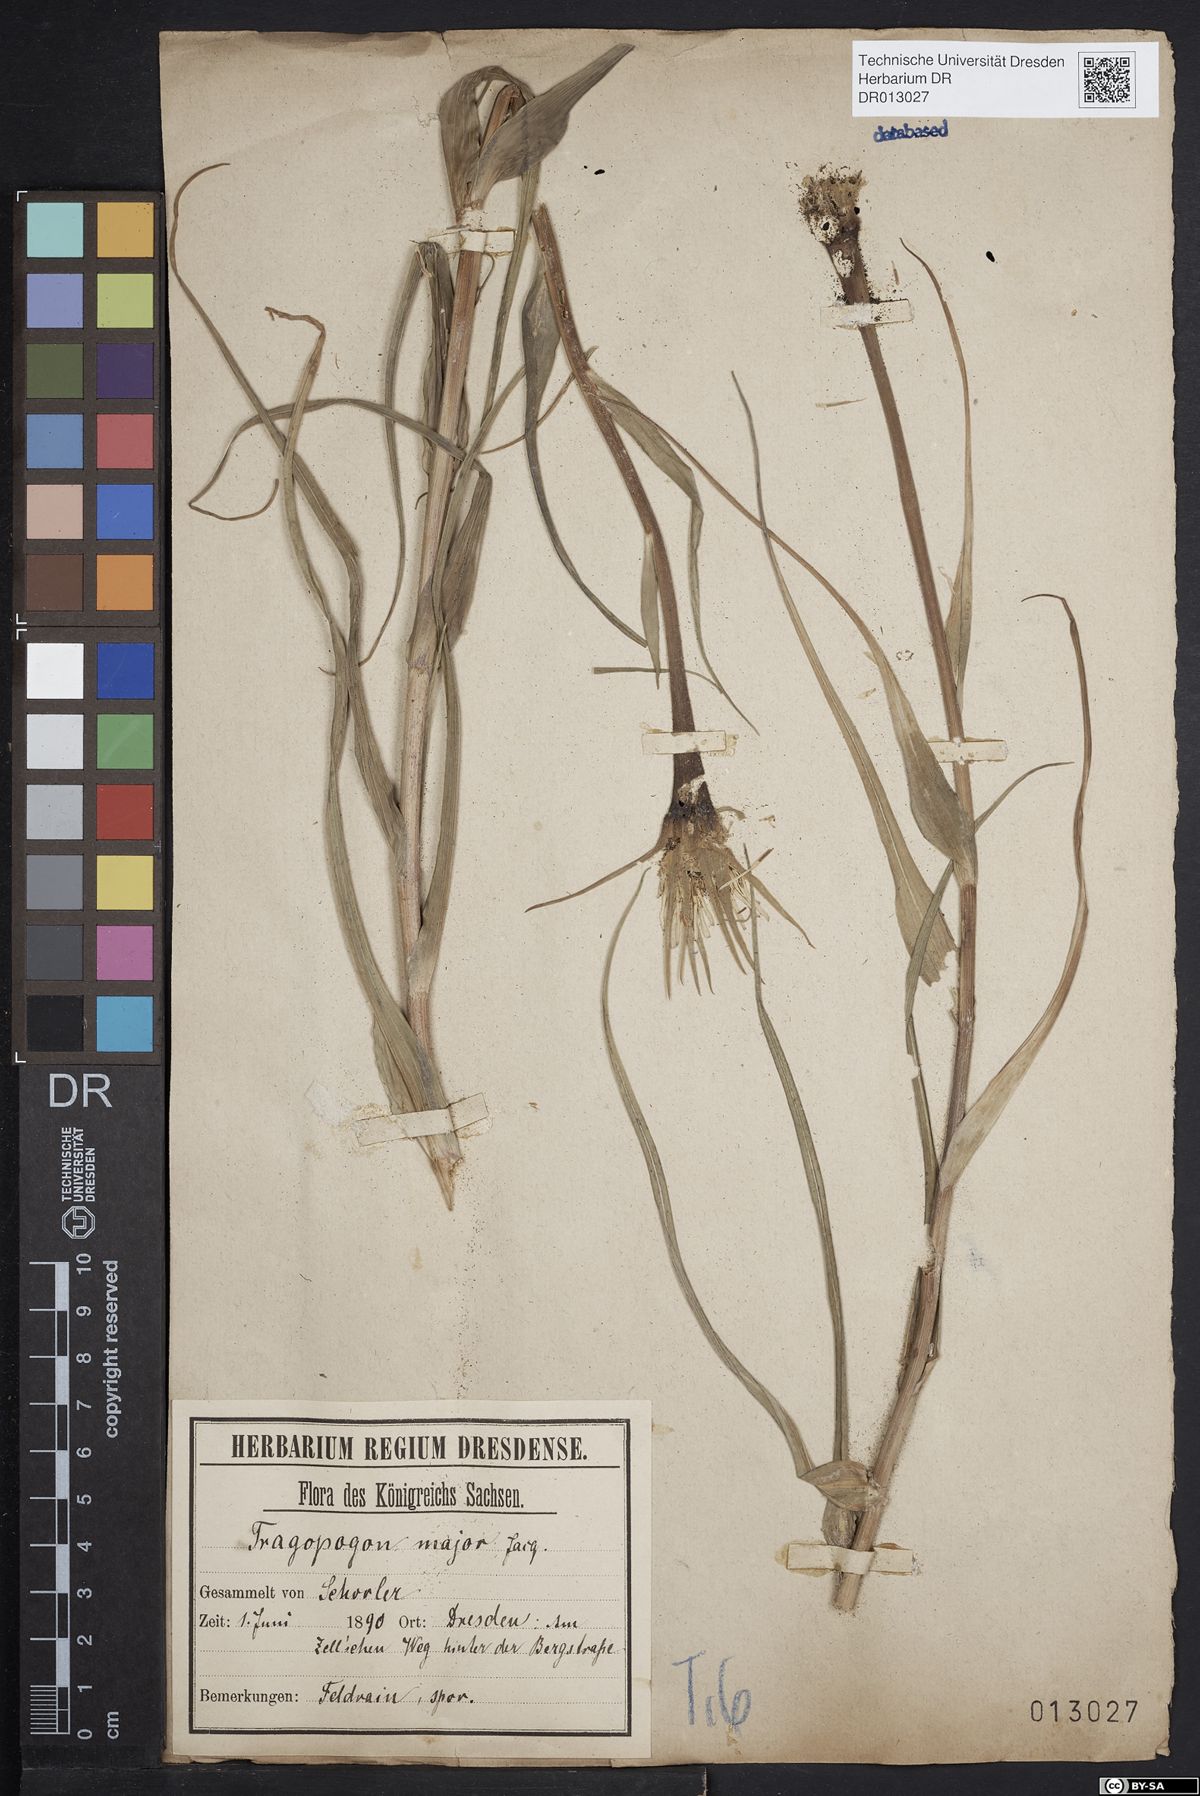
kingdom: Plantae
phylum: Tracheophyta
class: Magnoliopsida
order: Asterales
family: Asteraceae
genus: Tragopogon
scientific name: Tragopogon dubius
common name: Yellow salsify
